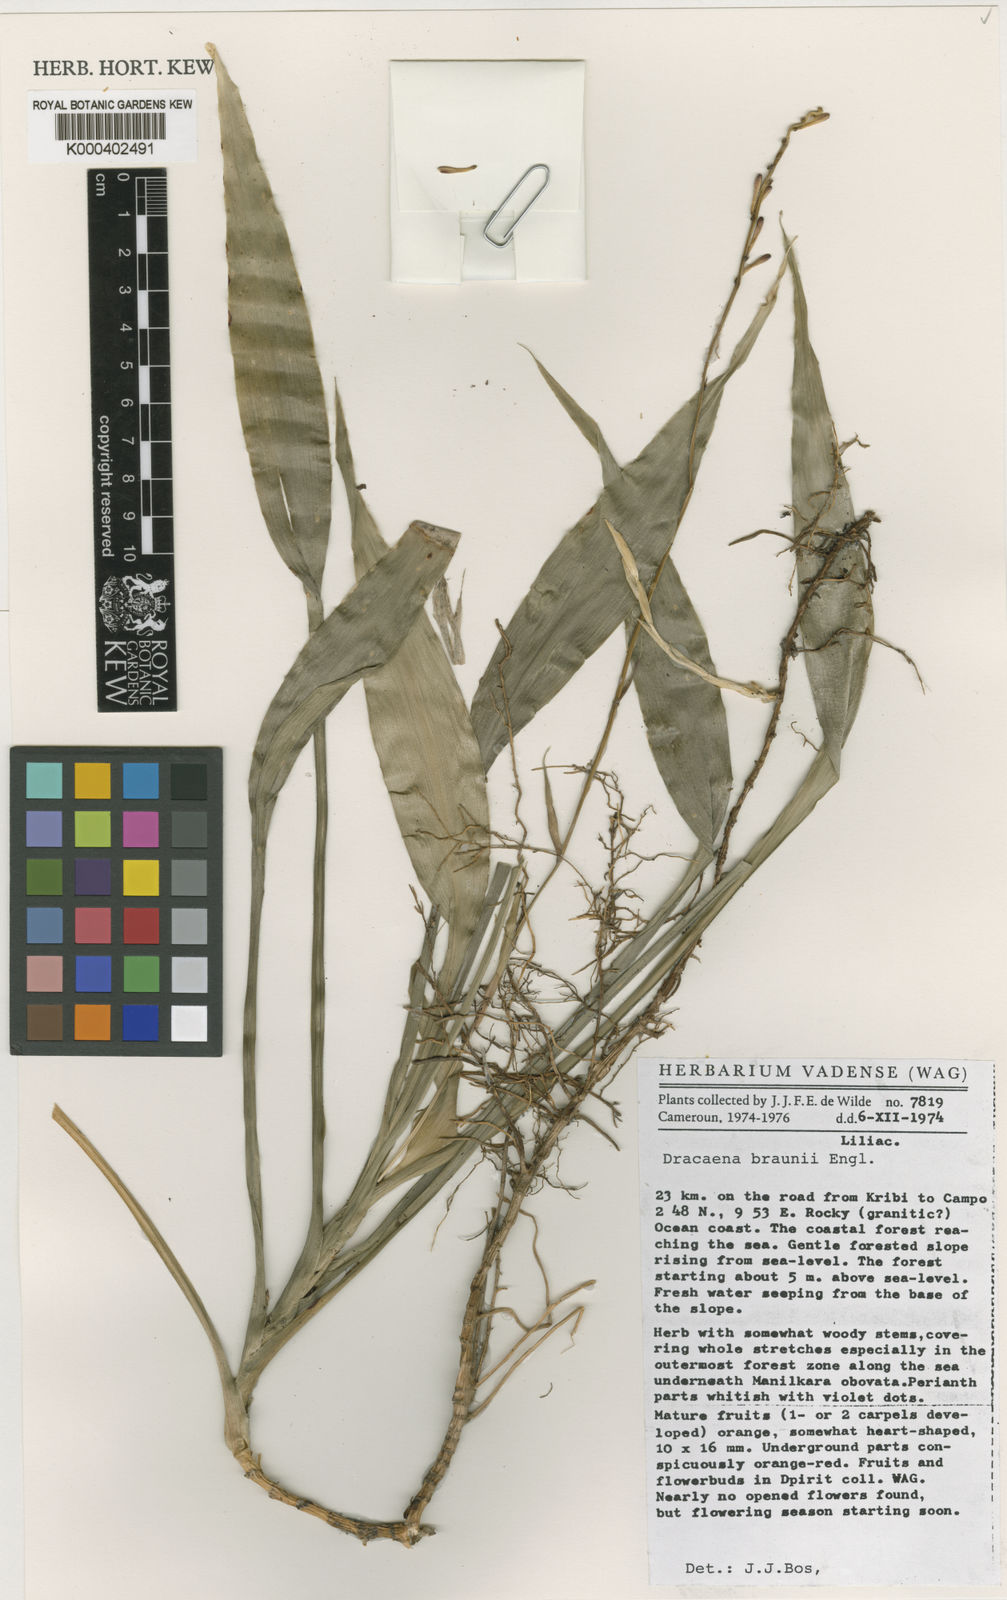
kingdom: Plantae
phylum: Tracheophyta
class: Liliopsida
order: Asparagales
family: Asparagaceae
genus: Dracaena
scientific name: Dracaena braunii
